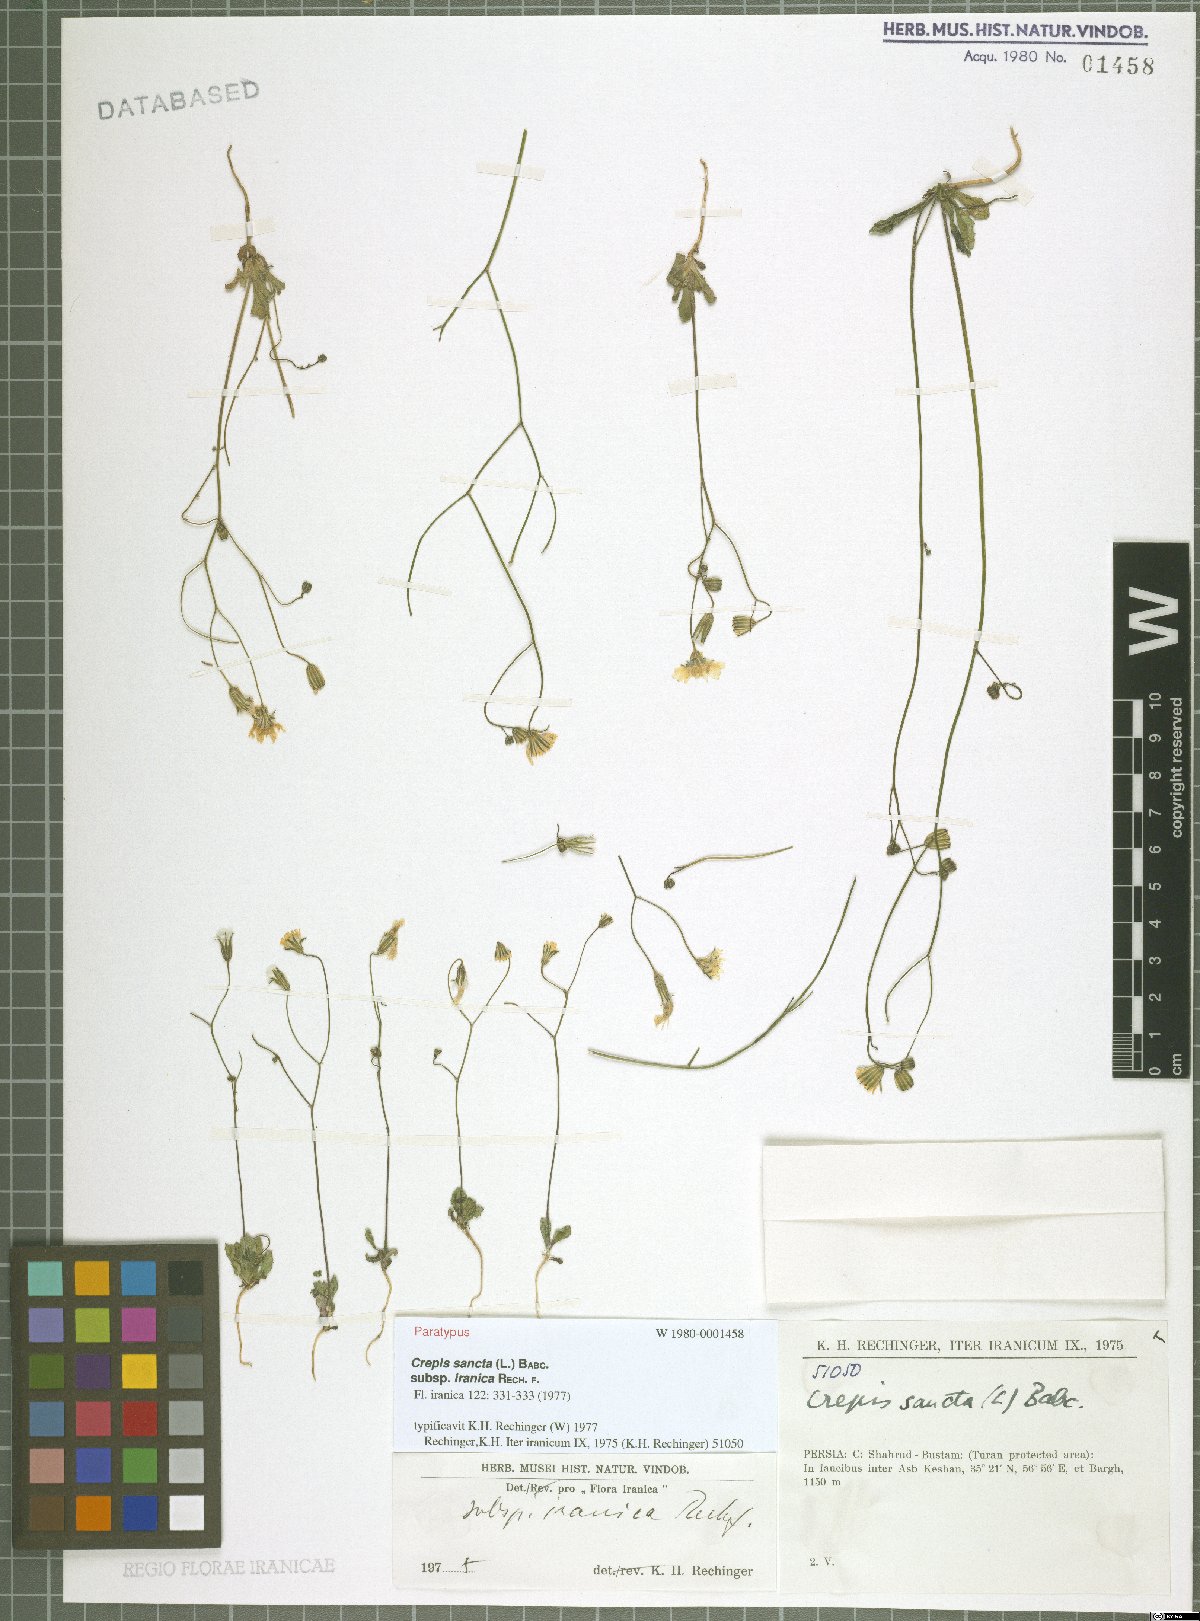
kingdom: Plantae
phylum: Tracheophyta
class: Magnoliopsida
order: Asterales
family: Asteraceae
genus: Crepis
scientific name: Crepis sancta
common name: Hawk's-beard
